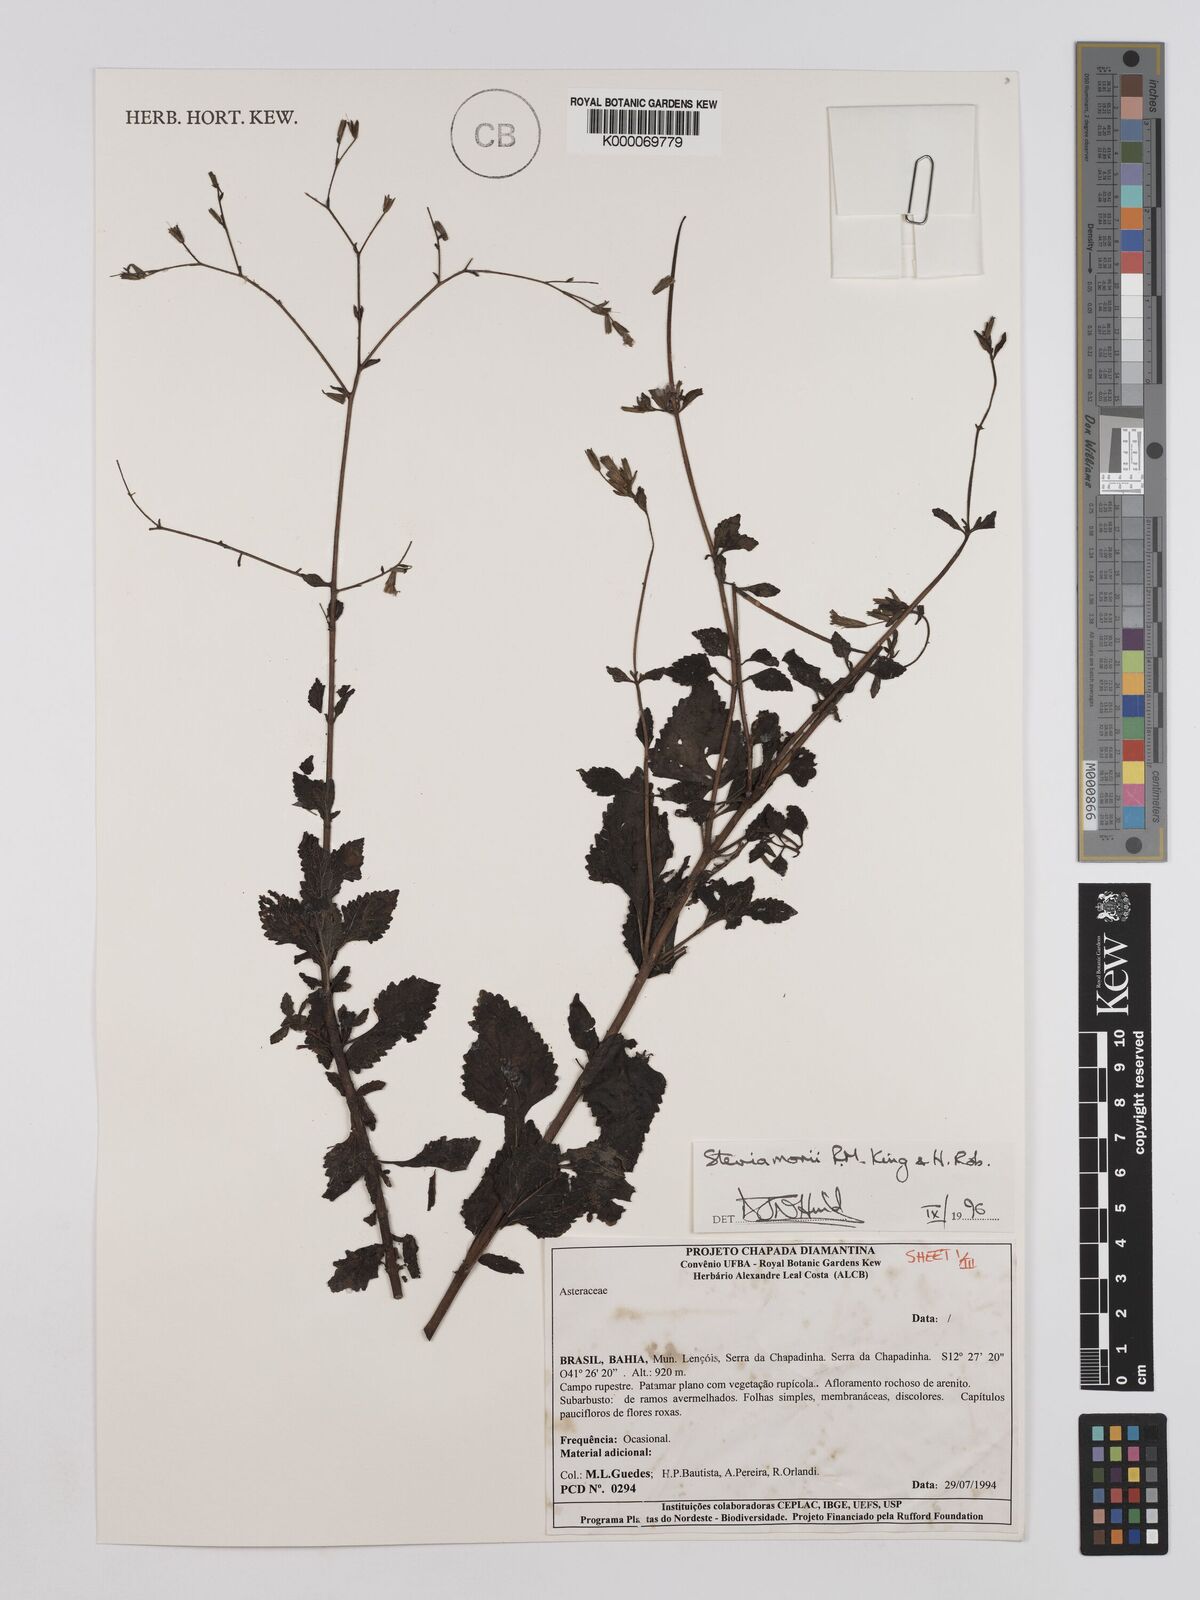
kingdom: Plantae
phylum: Tracheophyta
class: Magnoliopsida
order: Asterales
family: Asteraceae
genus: Stevia
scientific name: Stevia morii
